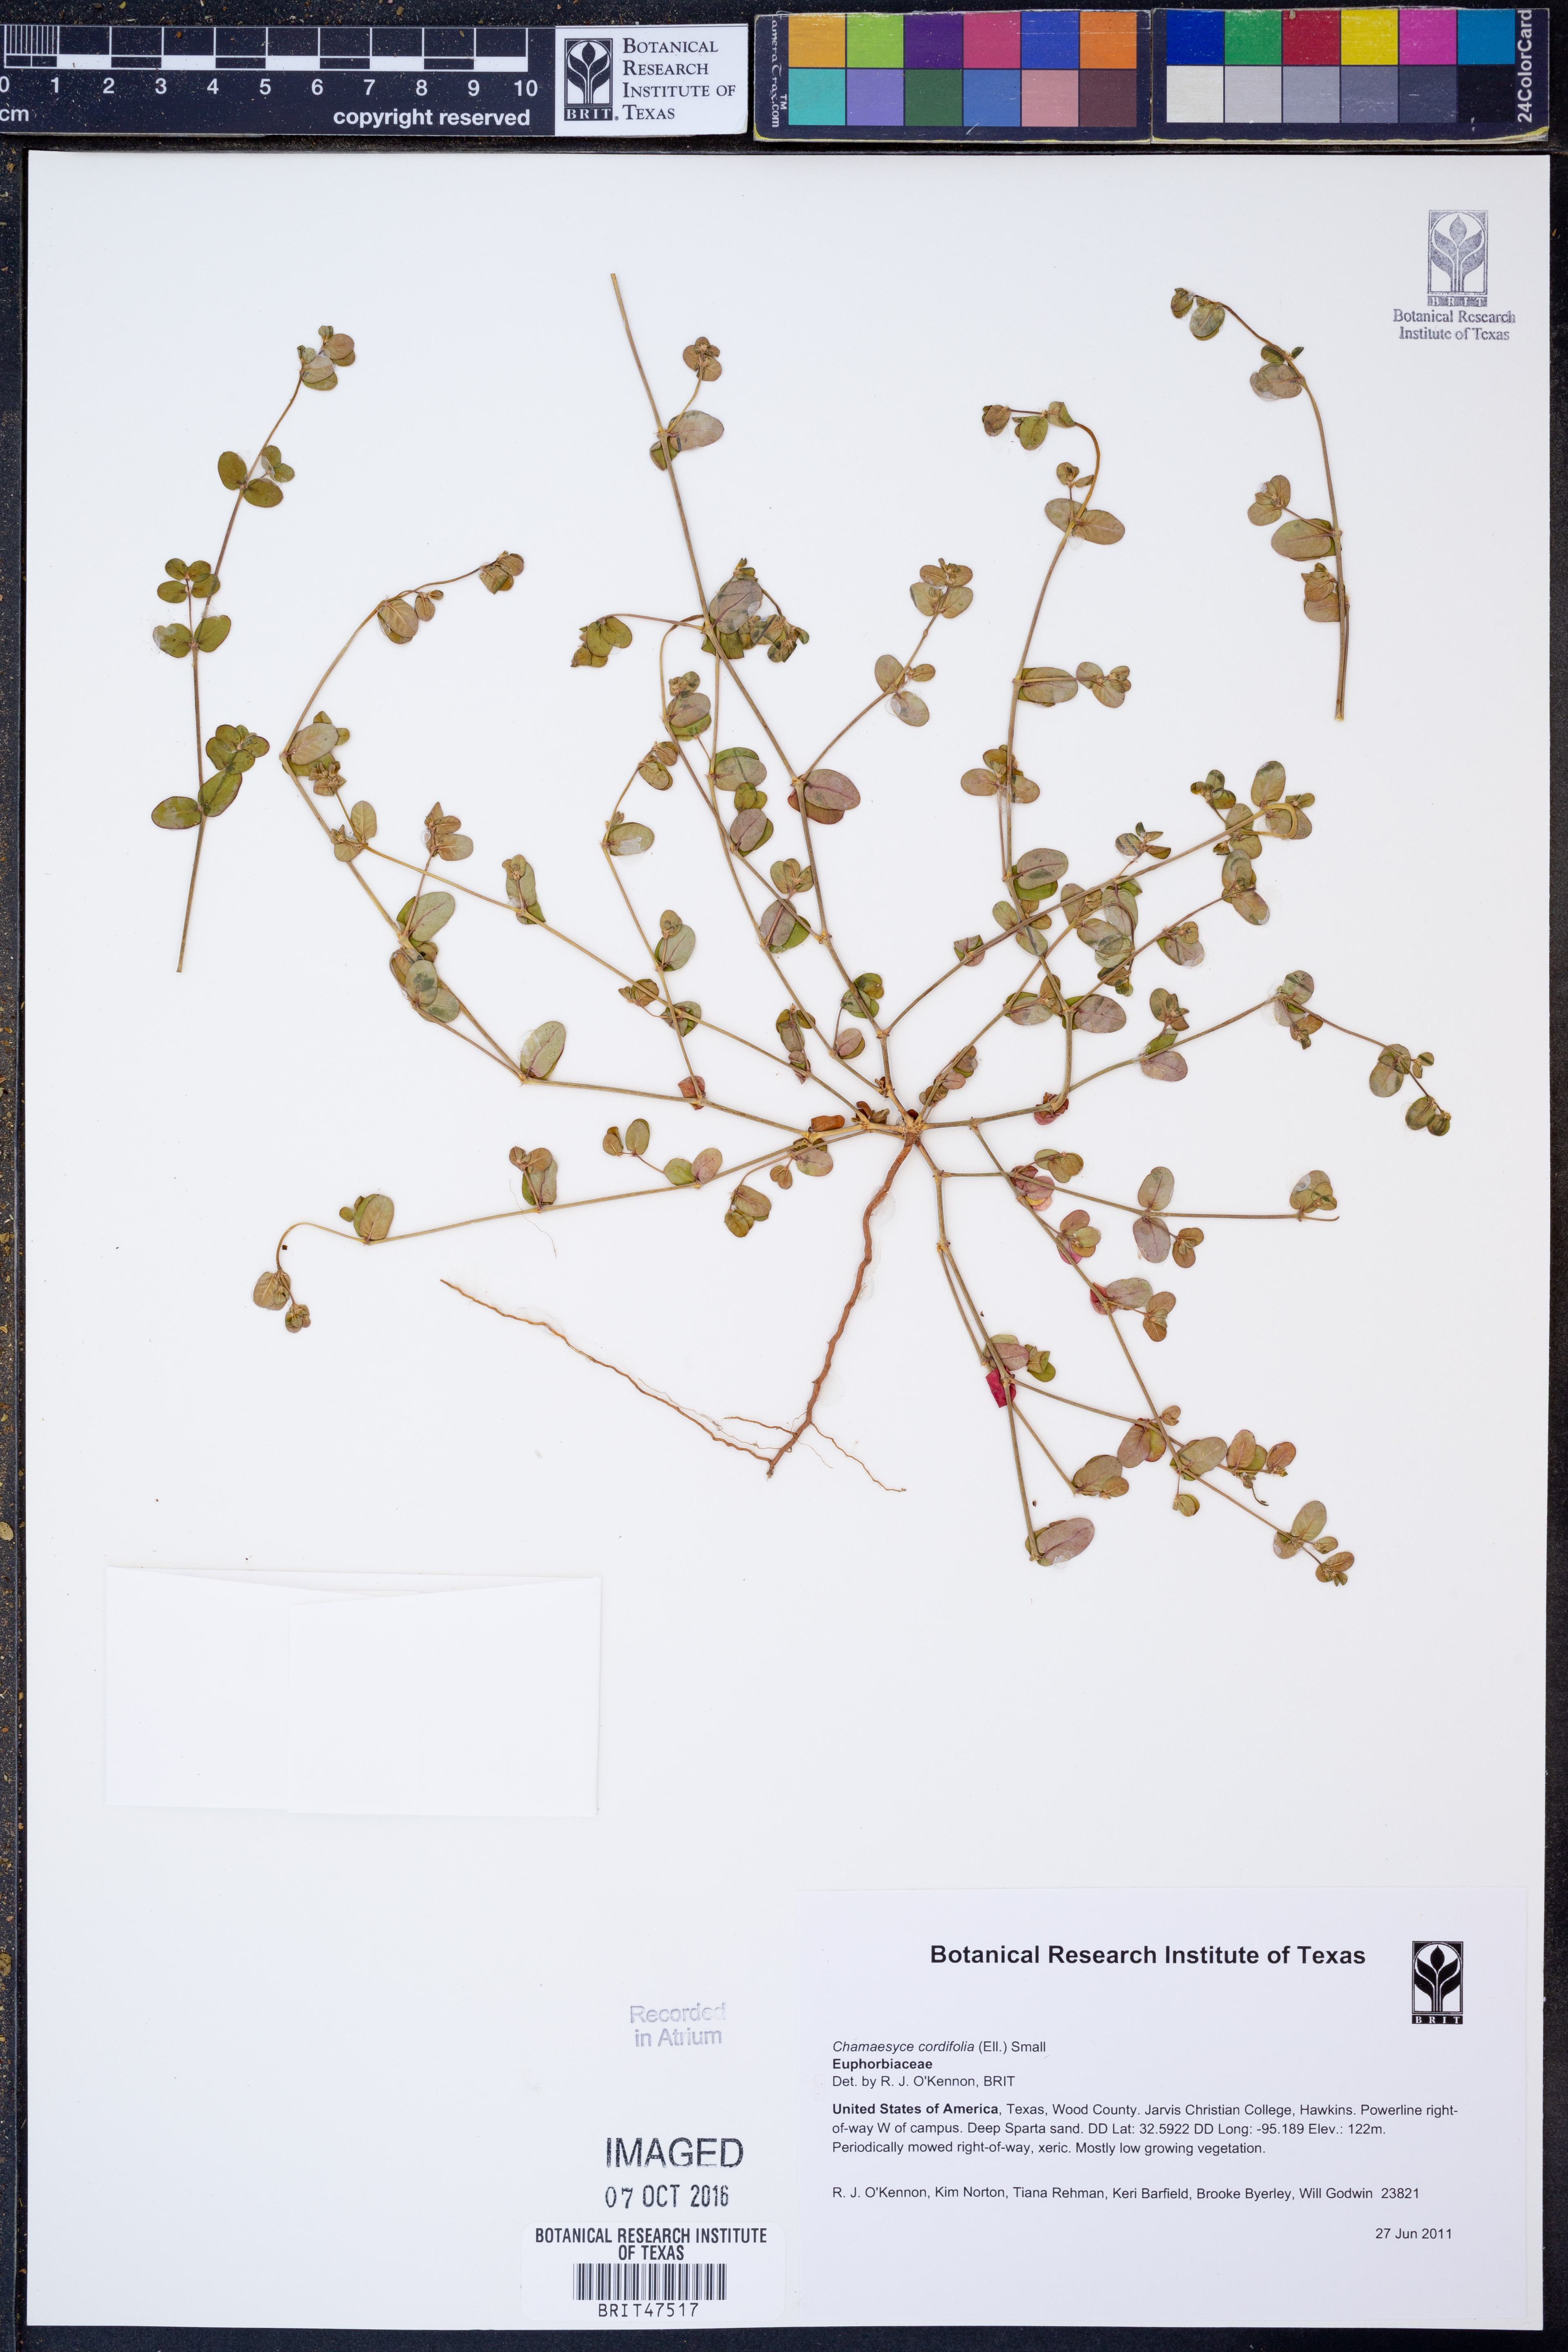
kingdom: Plantae
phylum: Tracheophyta
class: Magnoliopsida
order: Malpighiales
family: Euphorbiaceae
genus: Euphorbia
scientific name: Euphorbia cordifolia
